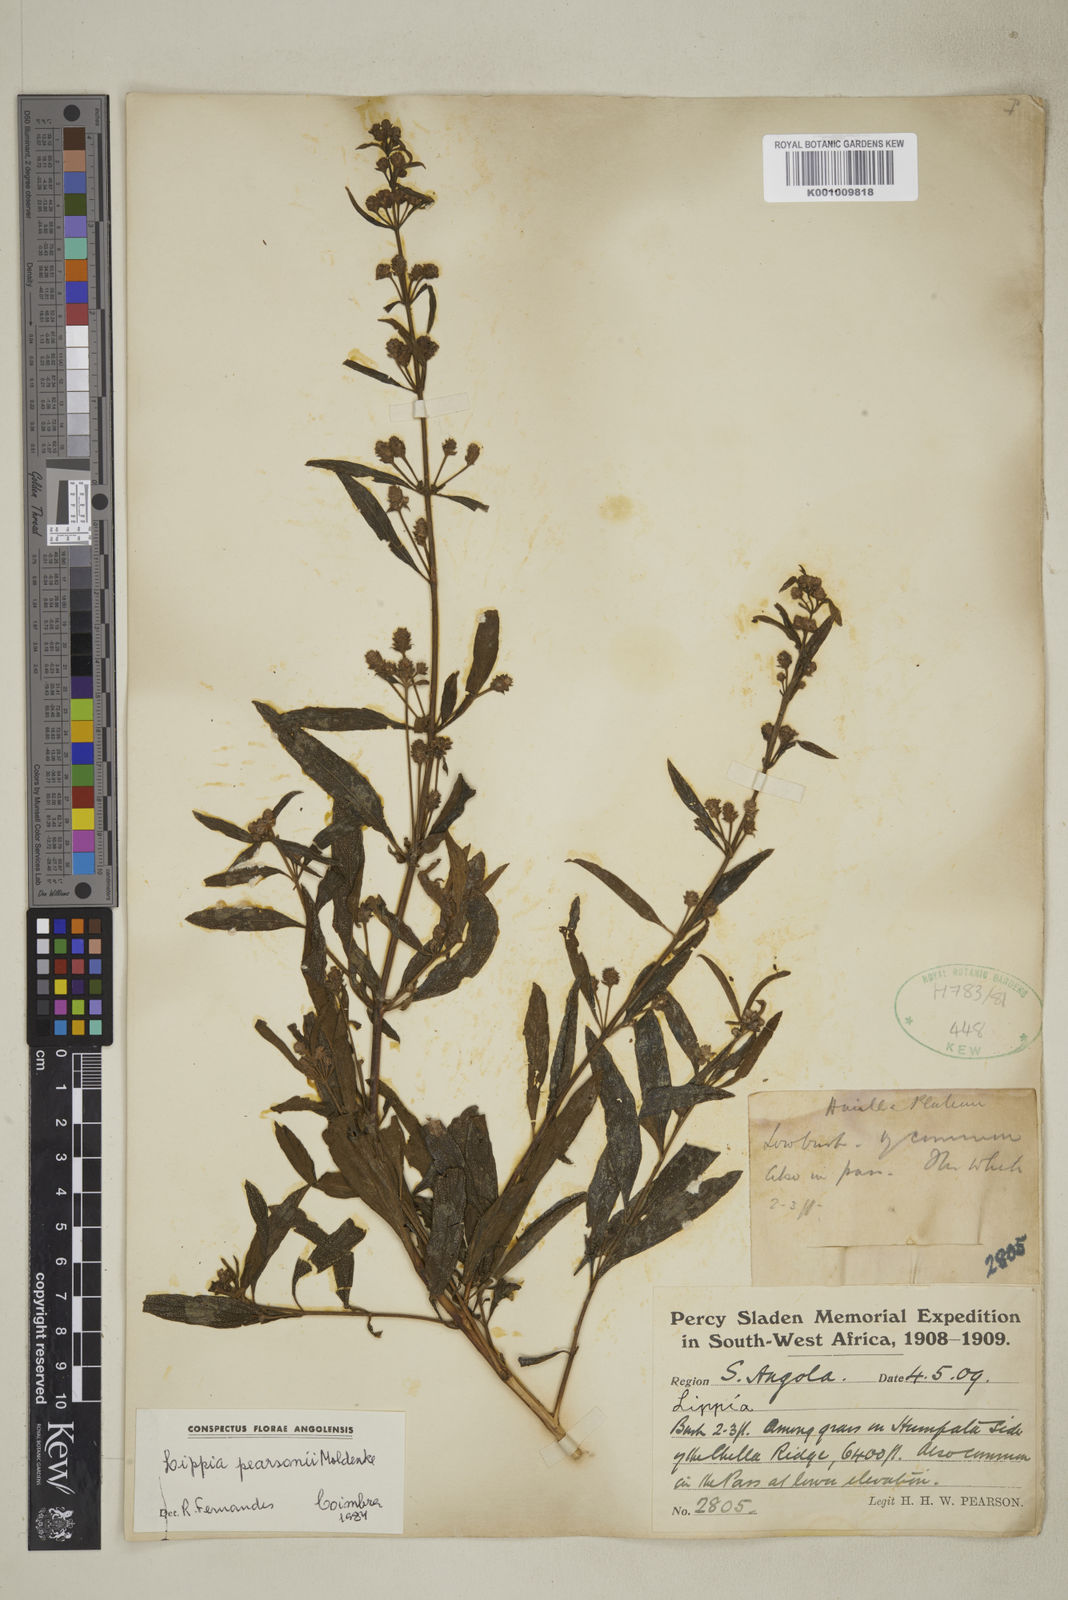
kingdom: Plantae
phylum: Tracheophyta
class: Magnoliopsida
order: Lamiales
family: Verbenaceae
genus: Lippia
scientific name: Lippia pearsonii
